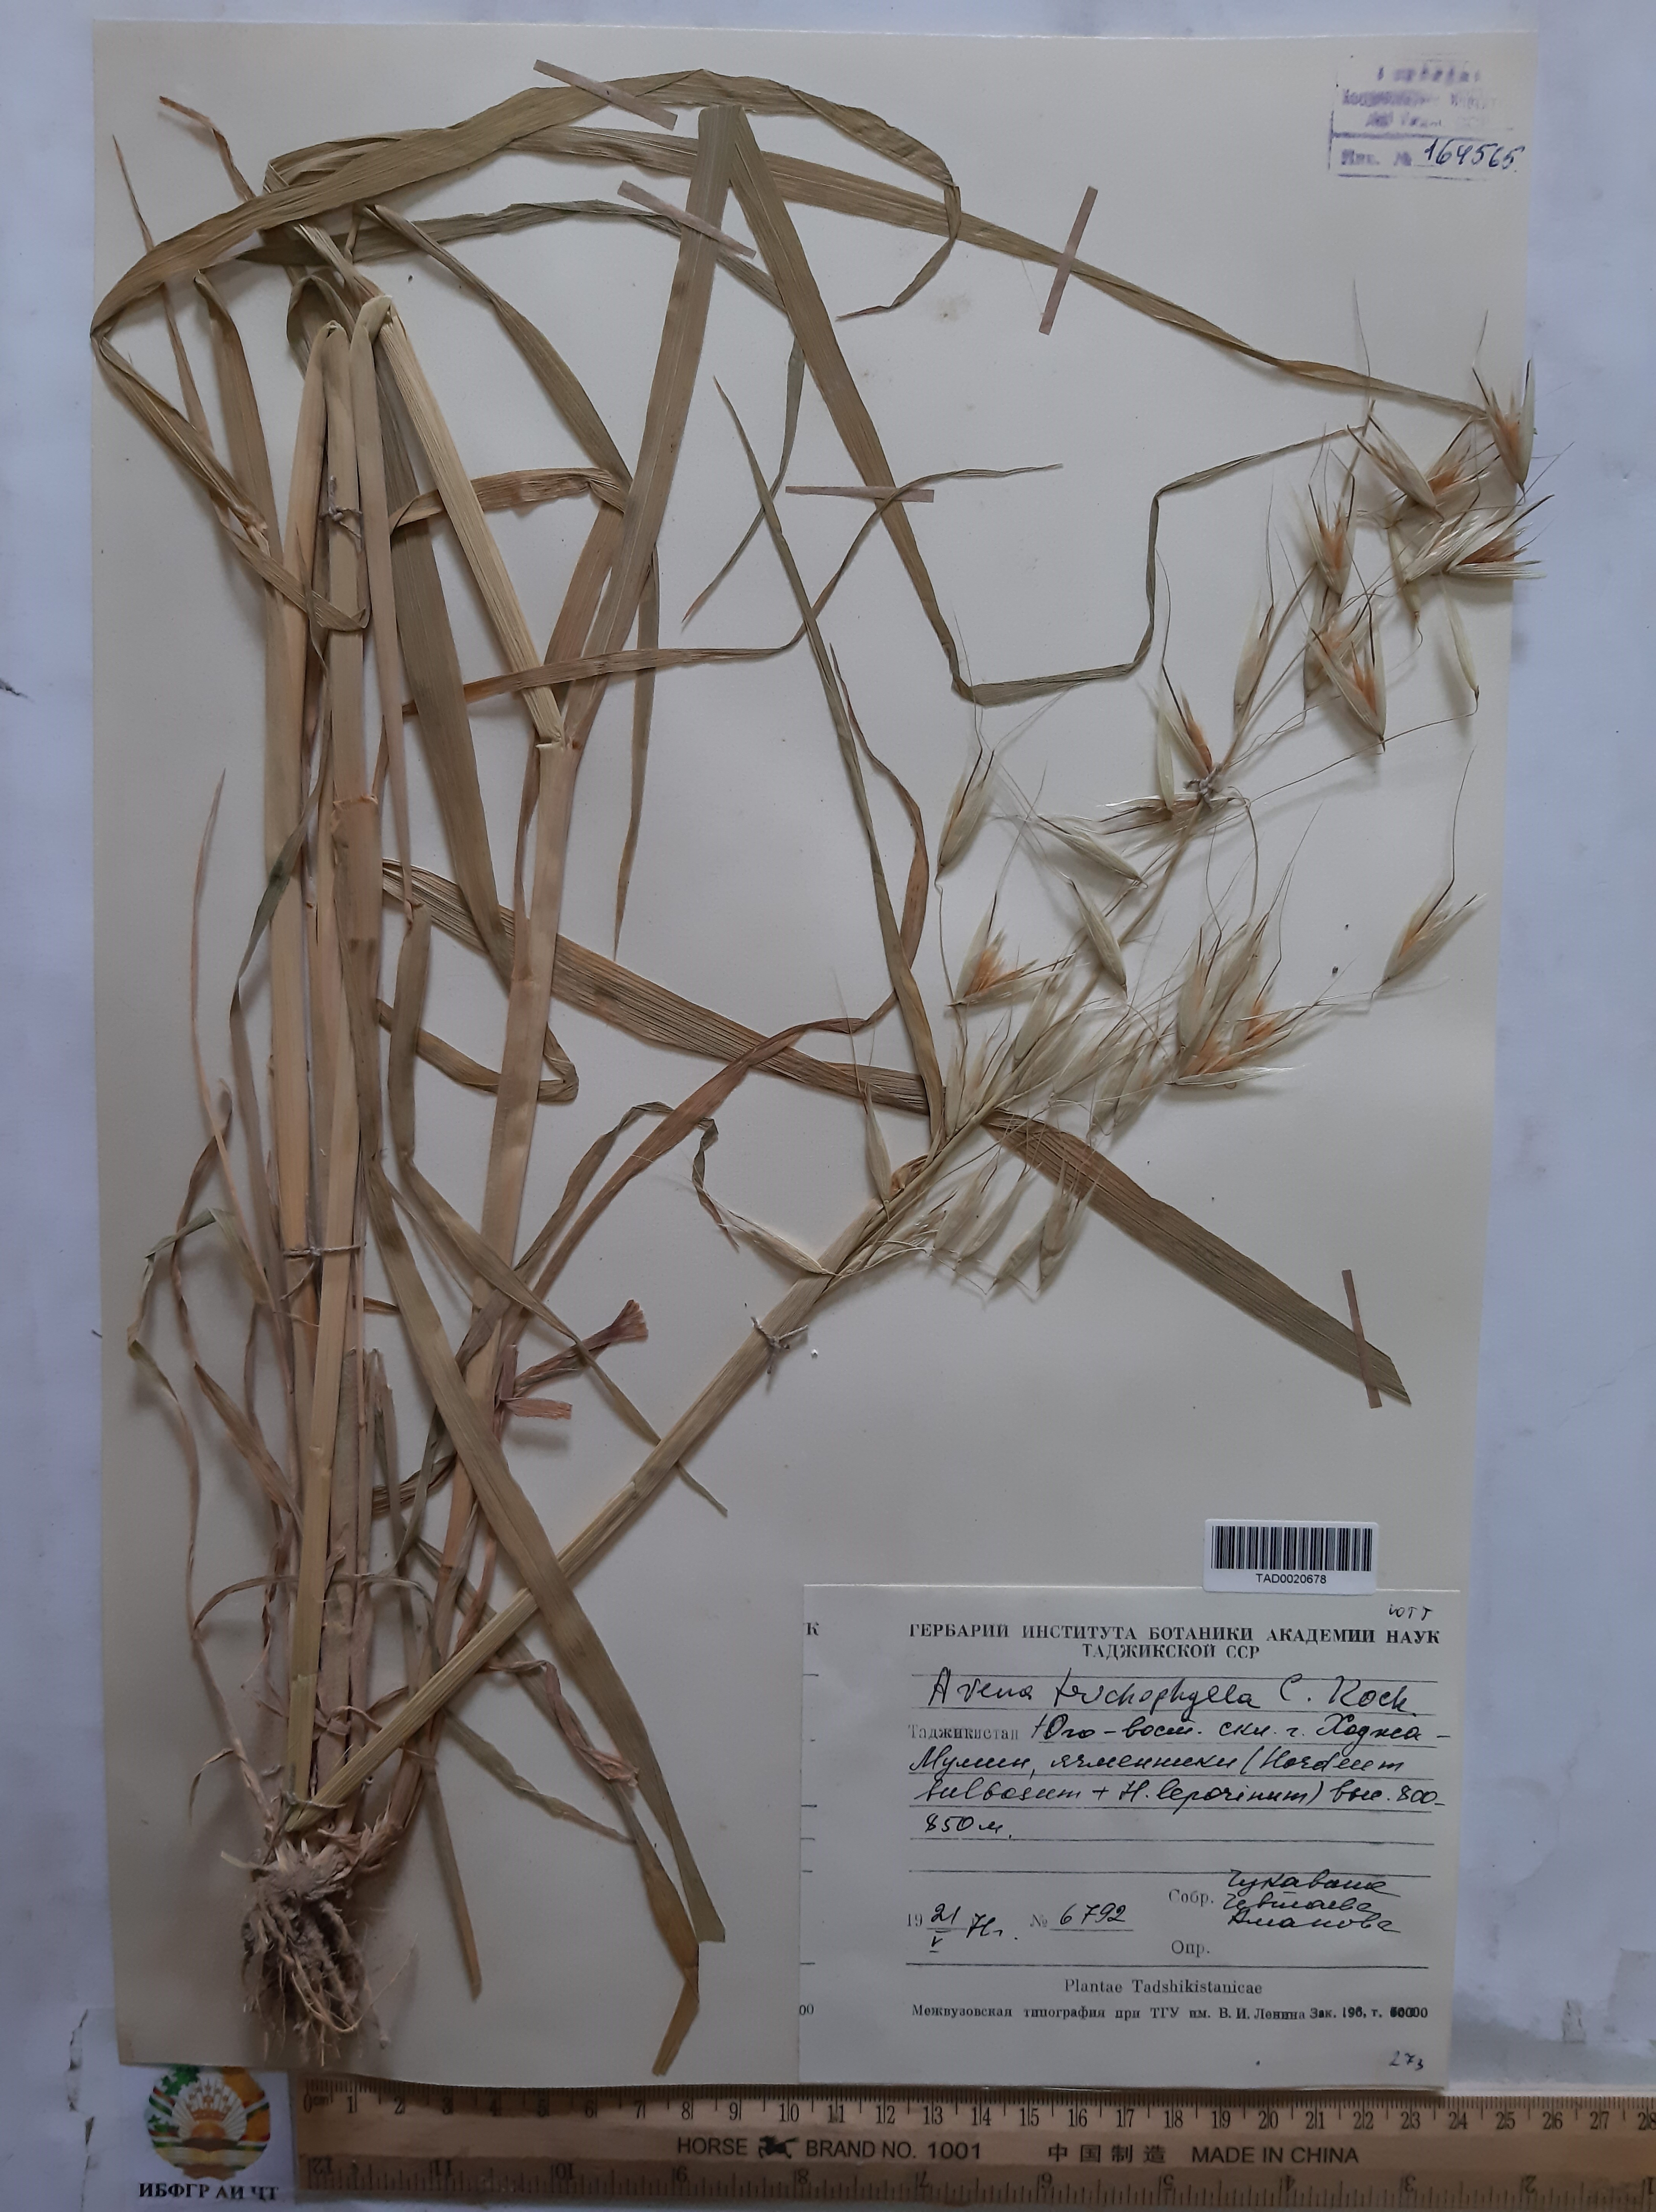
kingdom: Plantae
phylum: Tracheophyta
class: Liliopsida
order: Poales
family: Poaceae
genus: Avena
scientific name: Avena sterilis
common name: Animated oat
